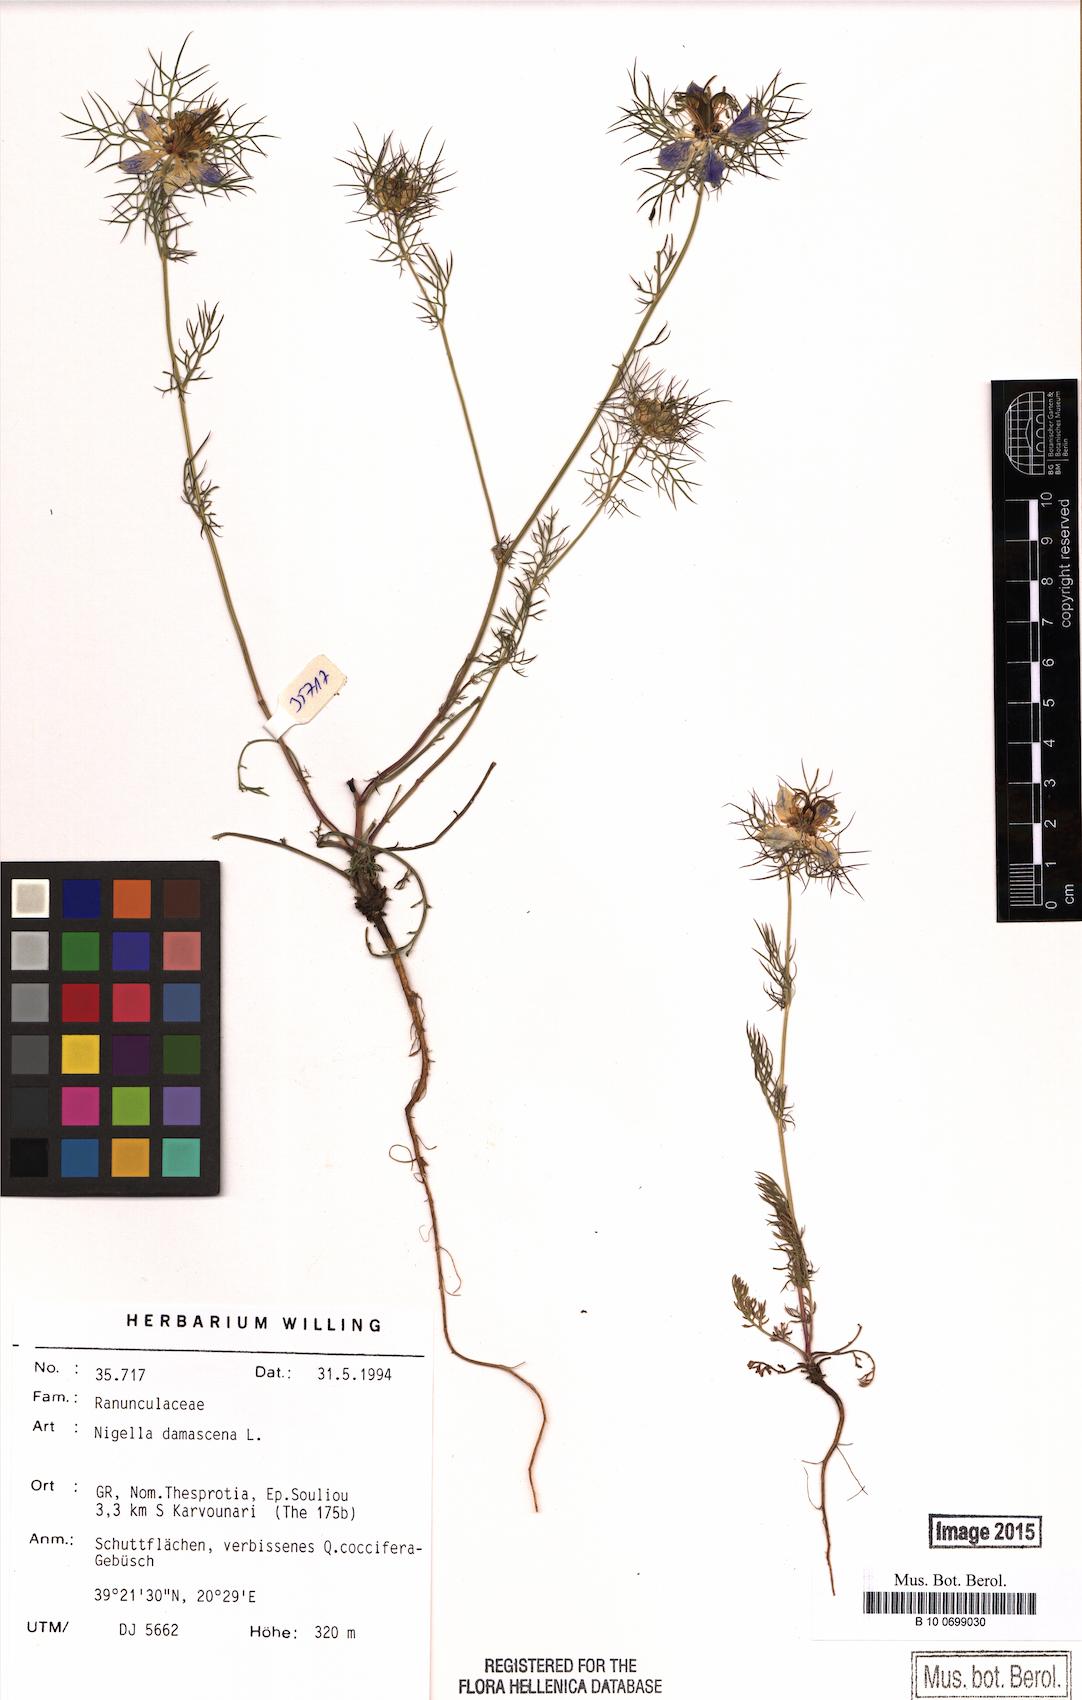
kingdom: Plantae
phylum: Tracheophyta
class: Magnoliopsida
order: Ranunculales
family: Ranunculaceae
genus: Nigella
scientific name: Nigella damascena
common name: Love-in-a-mist
